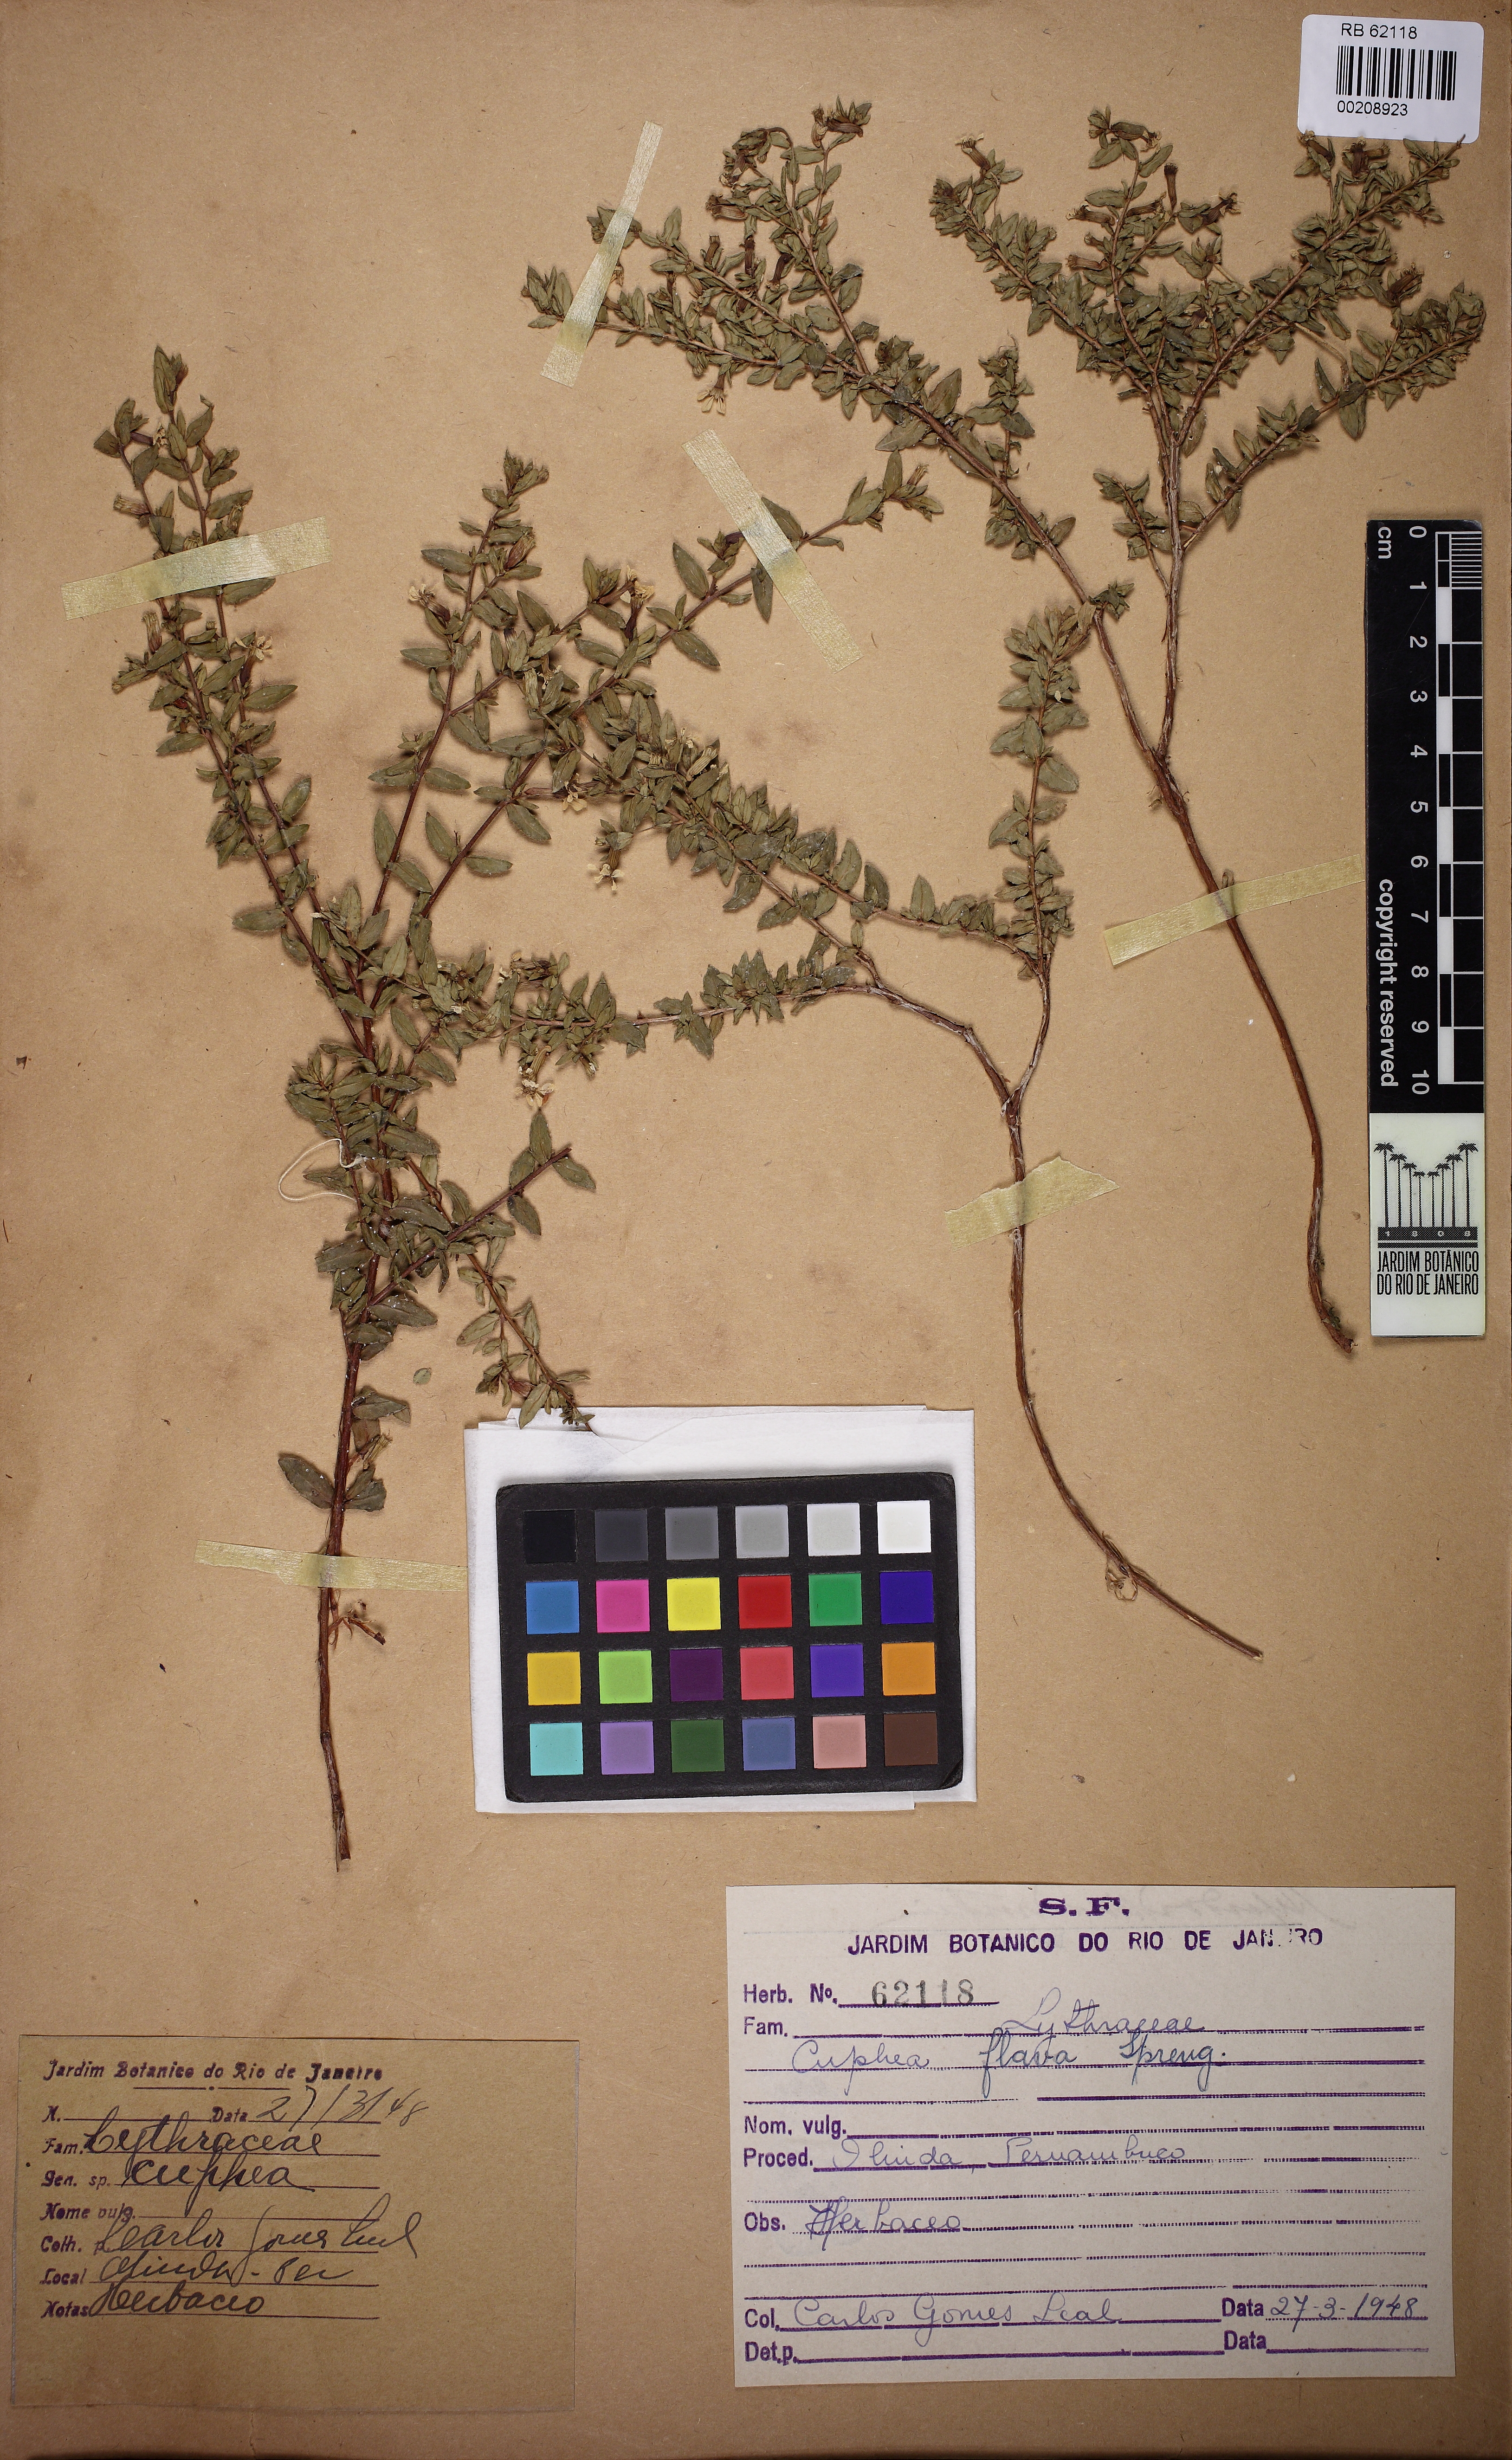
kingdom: Plantae
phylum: Tracheophyta
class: Magnoliopsida
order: Myrtales
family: Lythraceae
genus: Cuphea
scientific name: Cuphea flava
